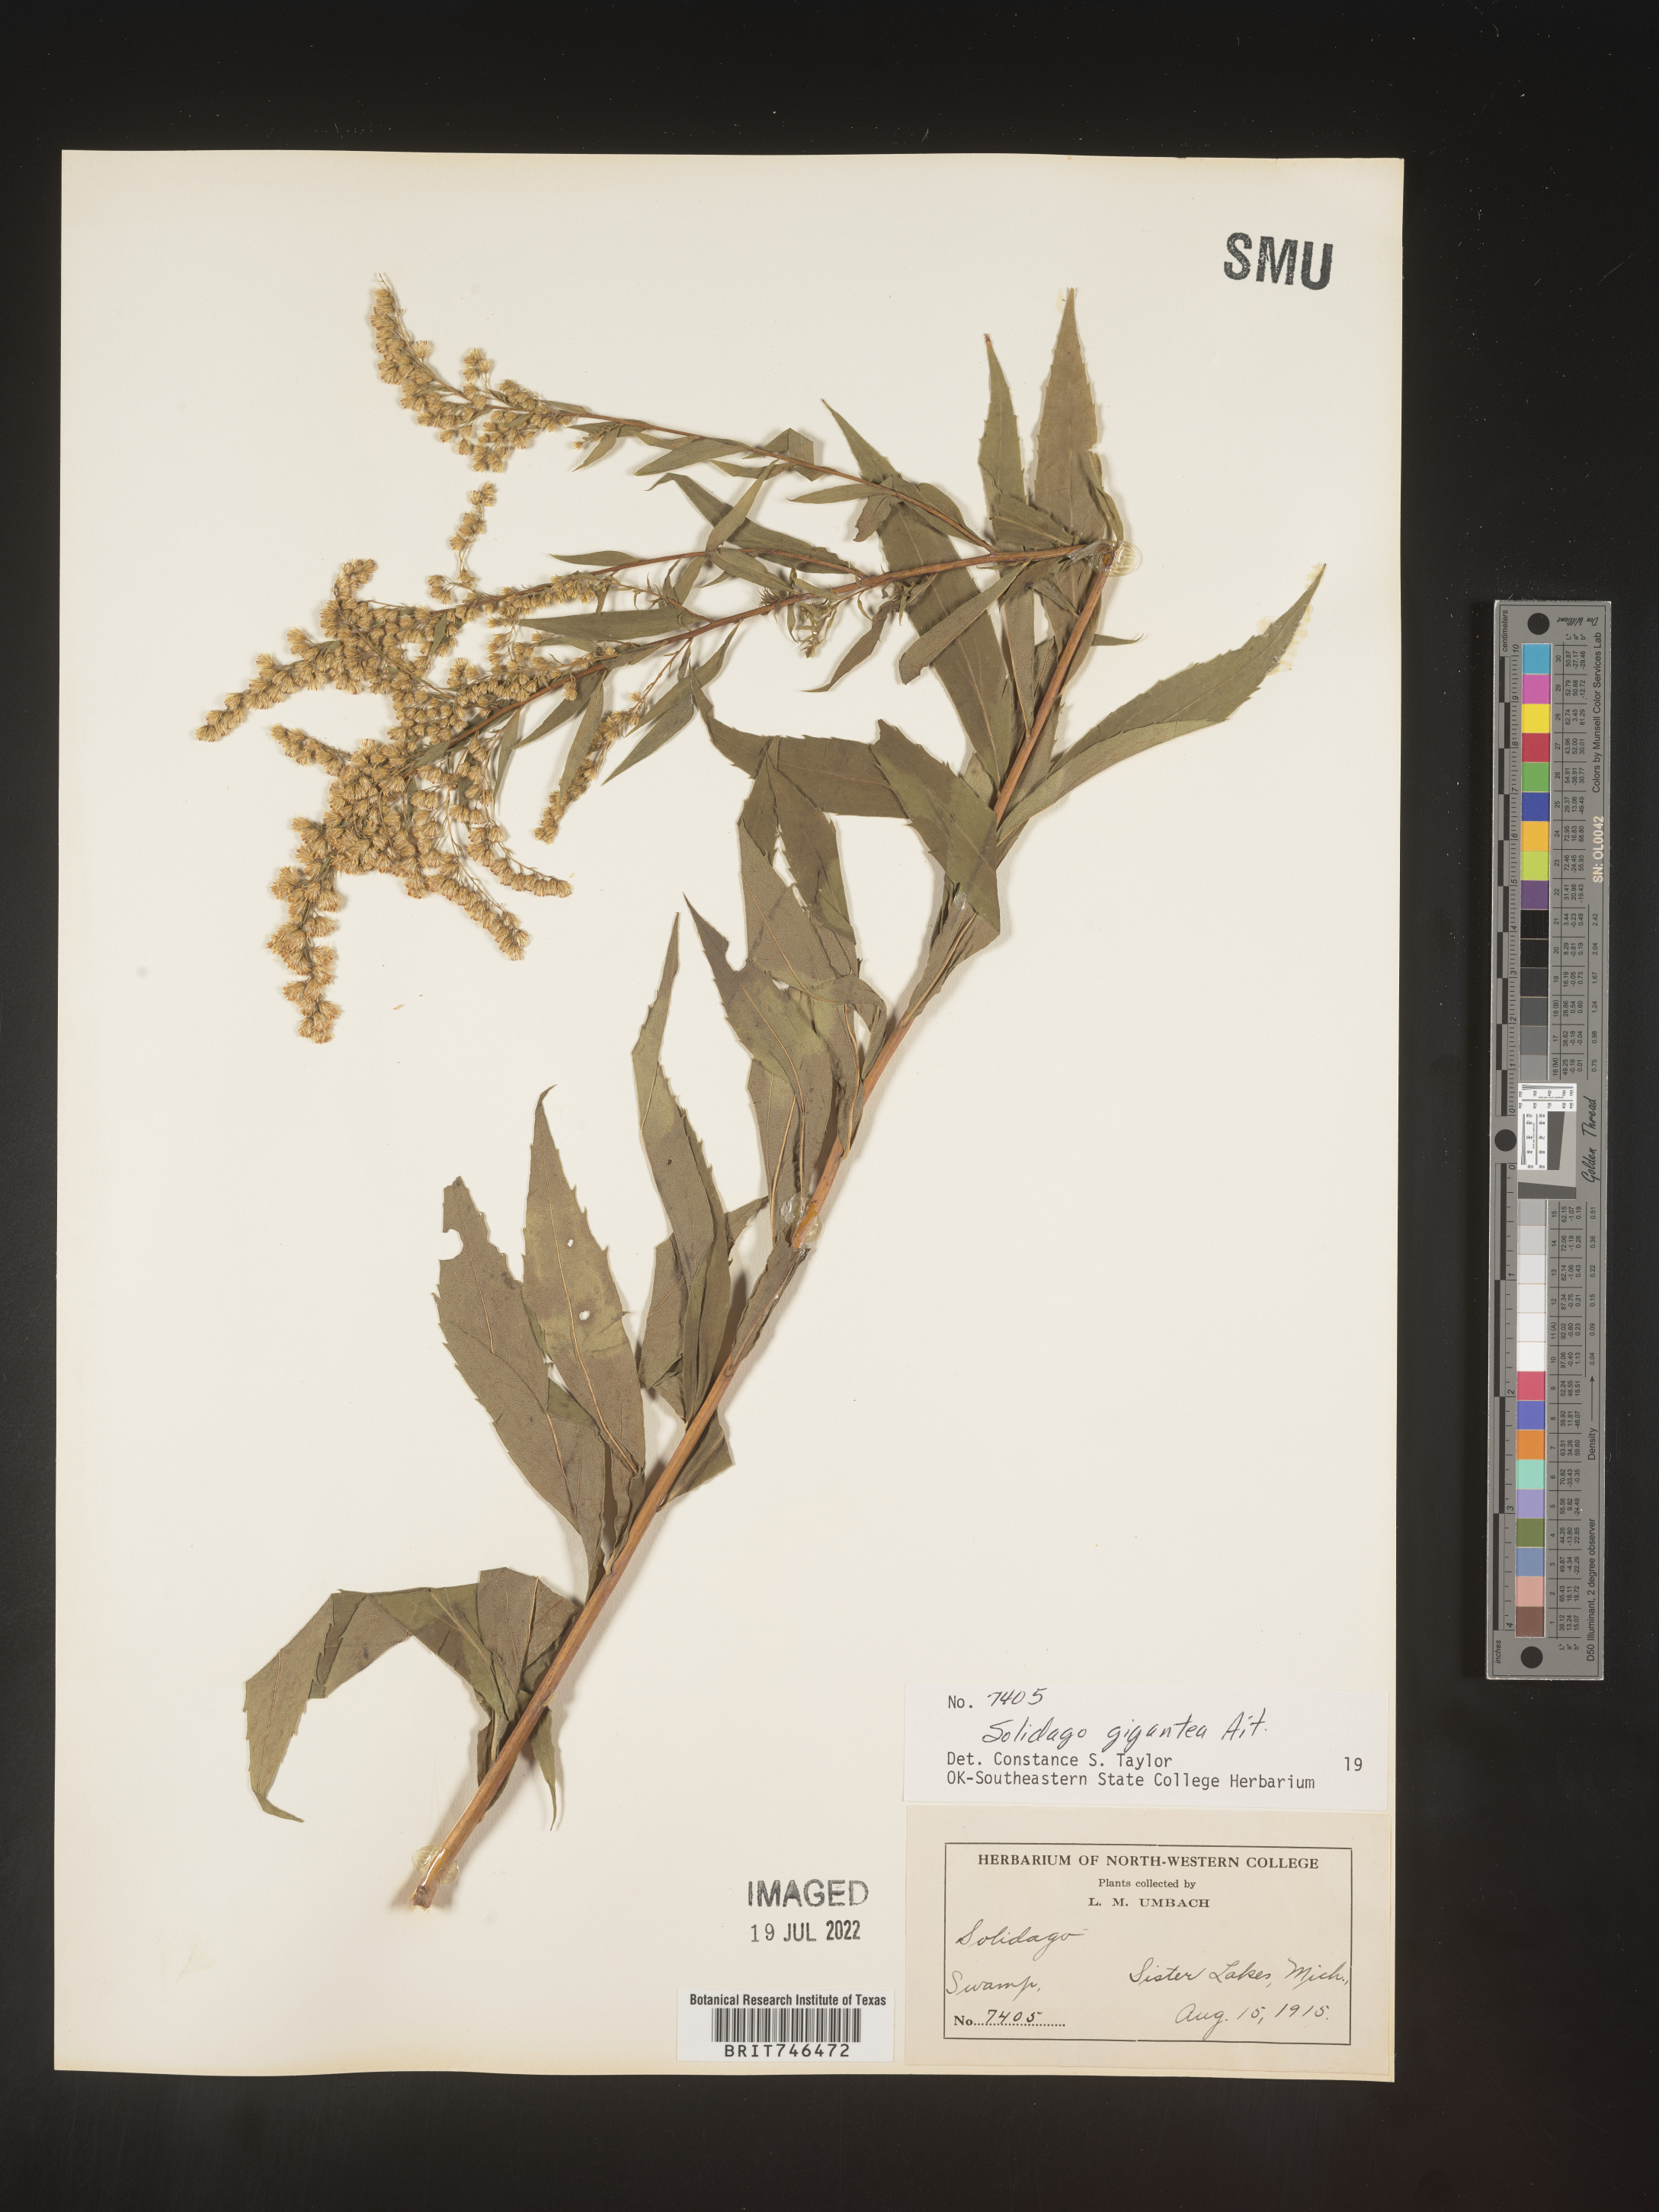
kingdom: Plantae
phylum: Tracheophyta
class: Magnoliopsida
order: Asterales
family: Asteraceae
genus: Solidago
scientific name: Solidago gigantea
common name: Giant goldenrod
